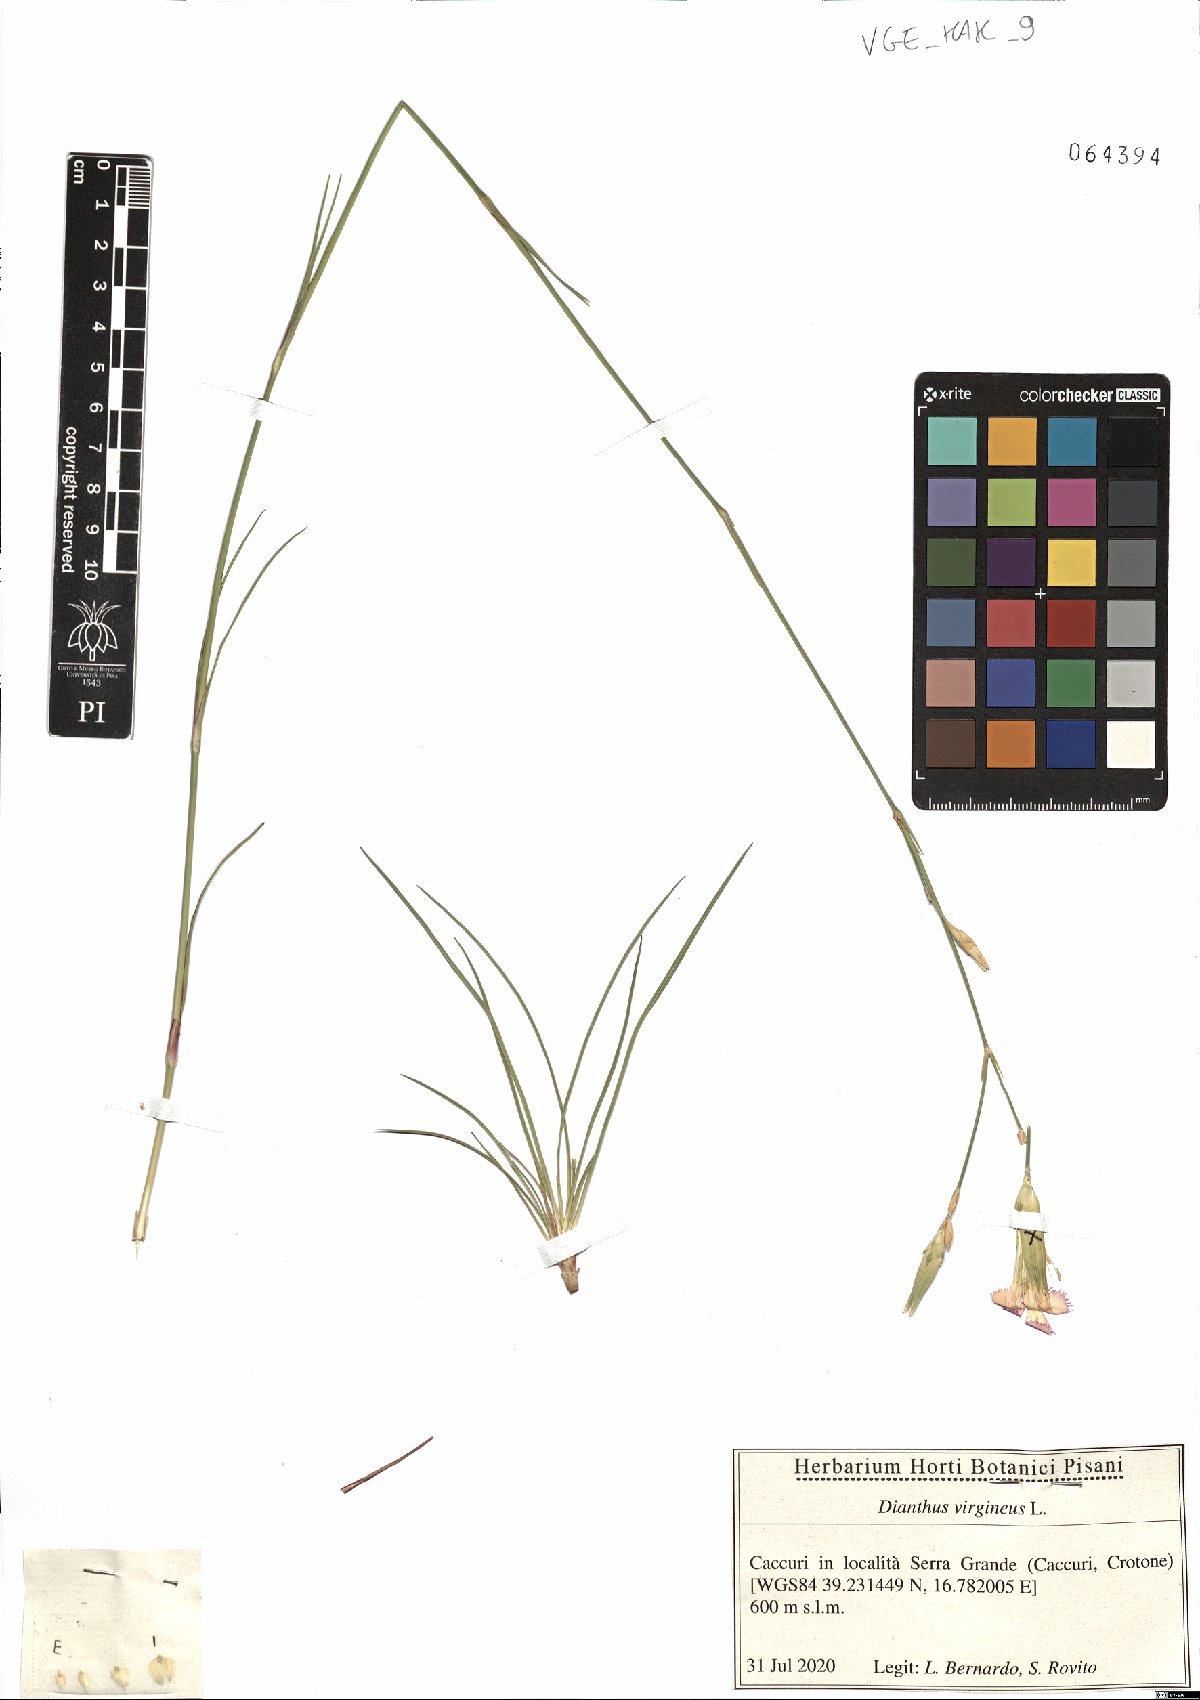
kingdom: Plantae
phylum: Tracheophyta
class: Magnoliopsida
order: Caryophyllales
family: Caryophyllaceae
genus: Dianthus
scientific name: Dianthus virgineus
